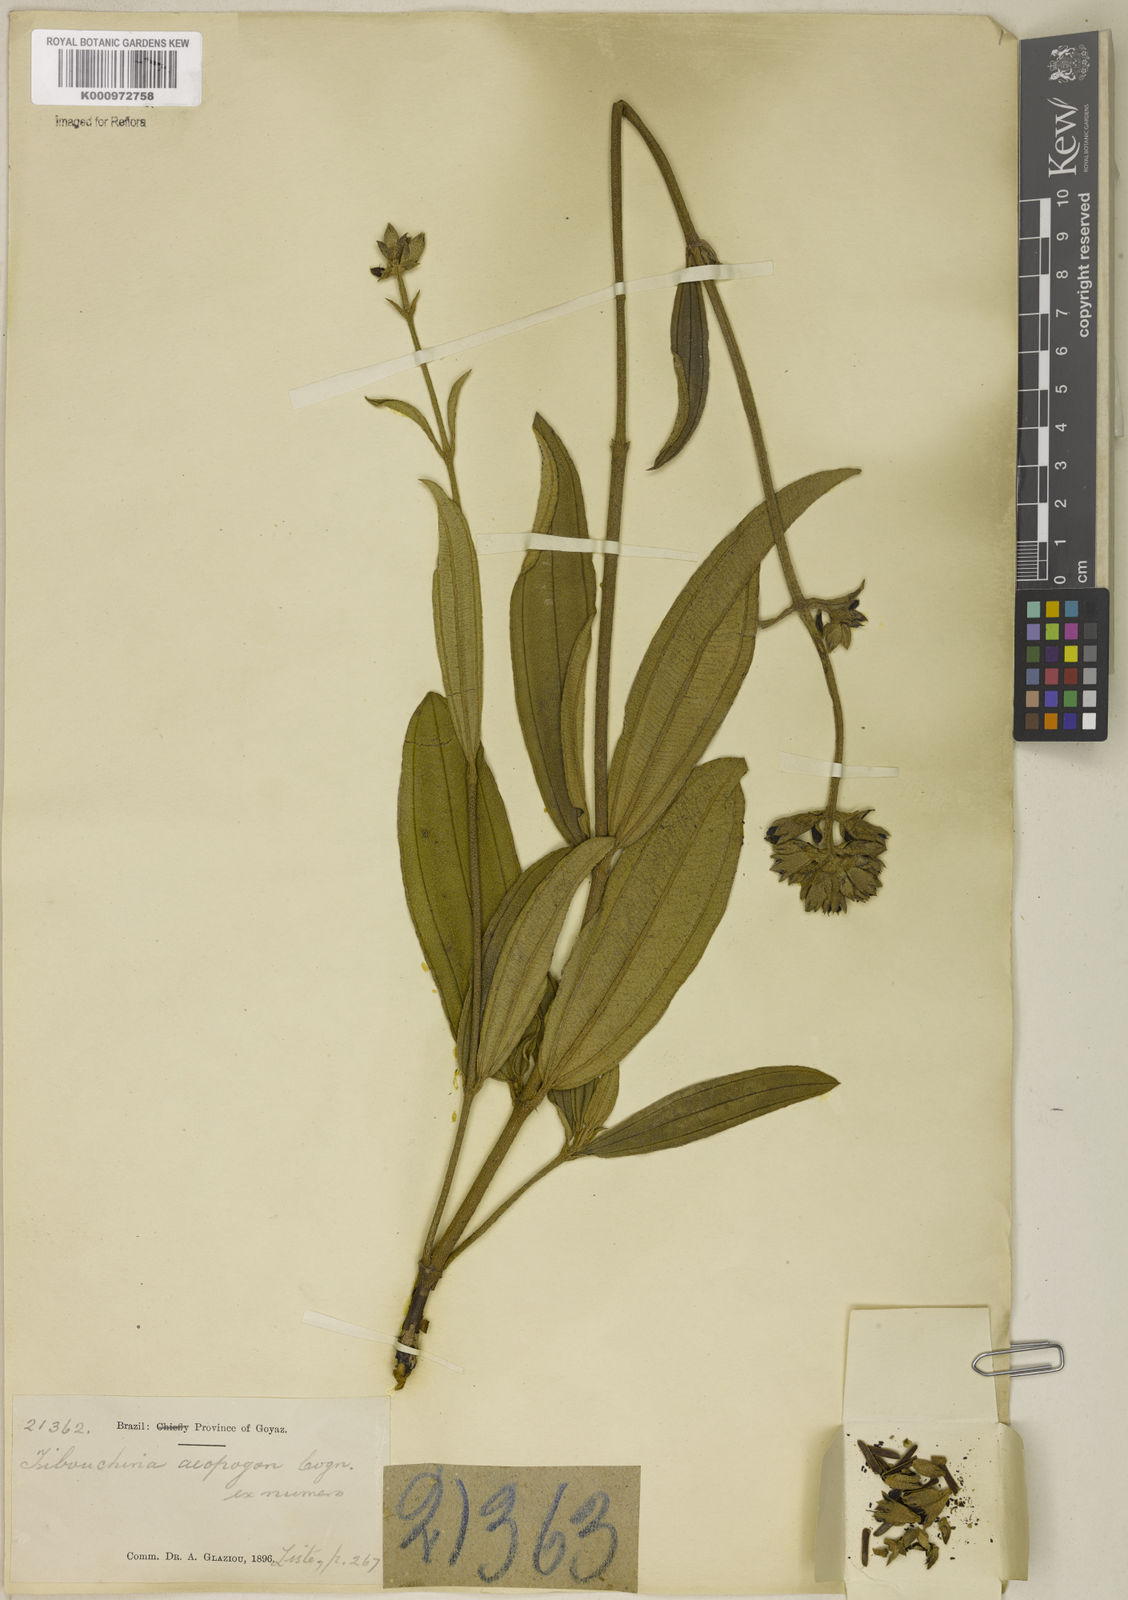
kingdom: Plantae
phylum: Tracheophyta
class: Magnoliopsida
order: Myrtales
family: Melastomataceae
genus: Pleroma
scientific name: Pleroma aegopogon
